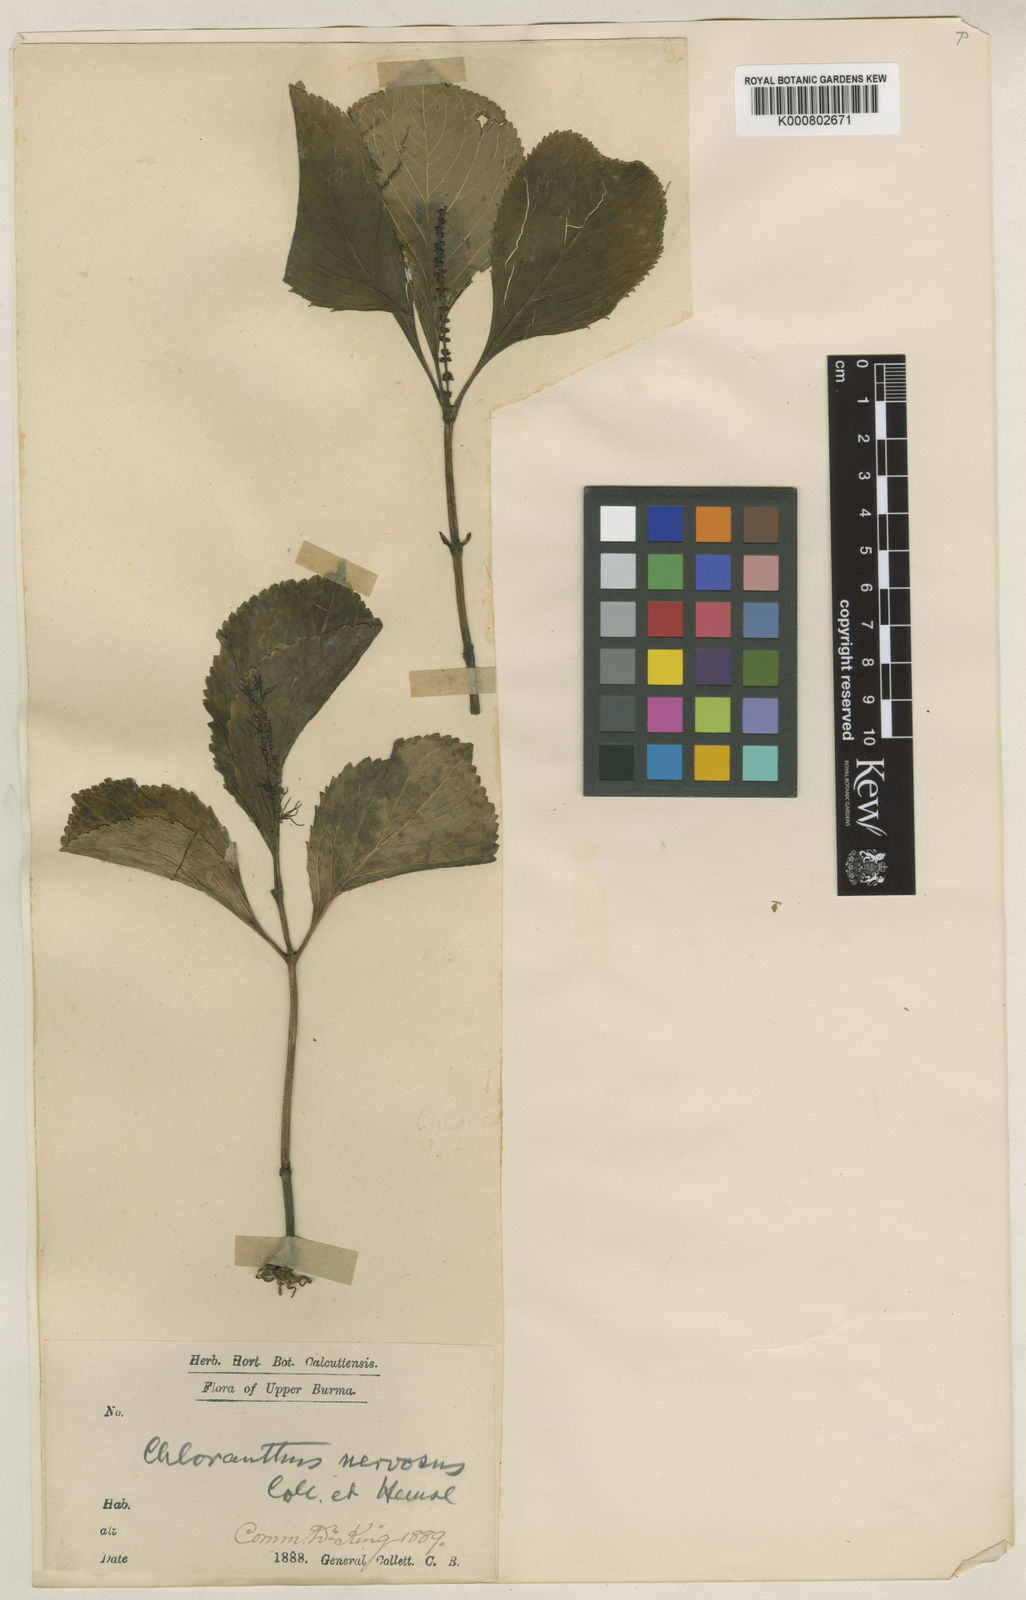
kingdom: Plantae
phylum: Tracheophyta
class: Magnoliopsida
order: Chloranthales
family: Chloranthaceae
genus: Chloranthus
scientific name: Chloranthus nervosus
